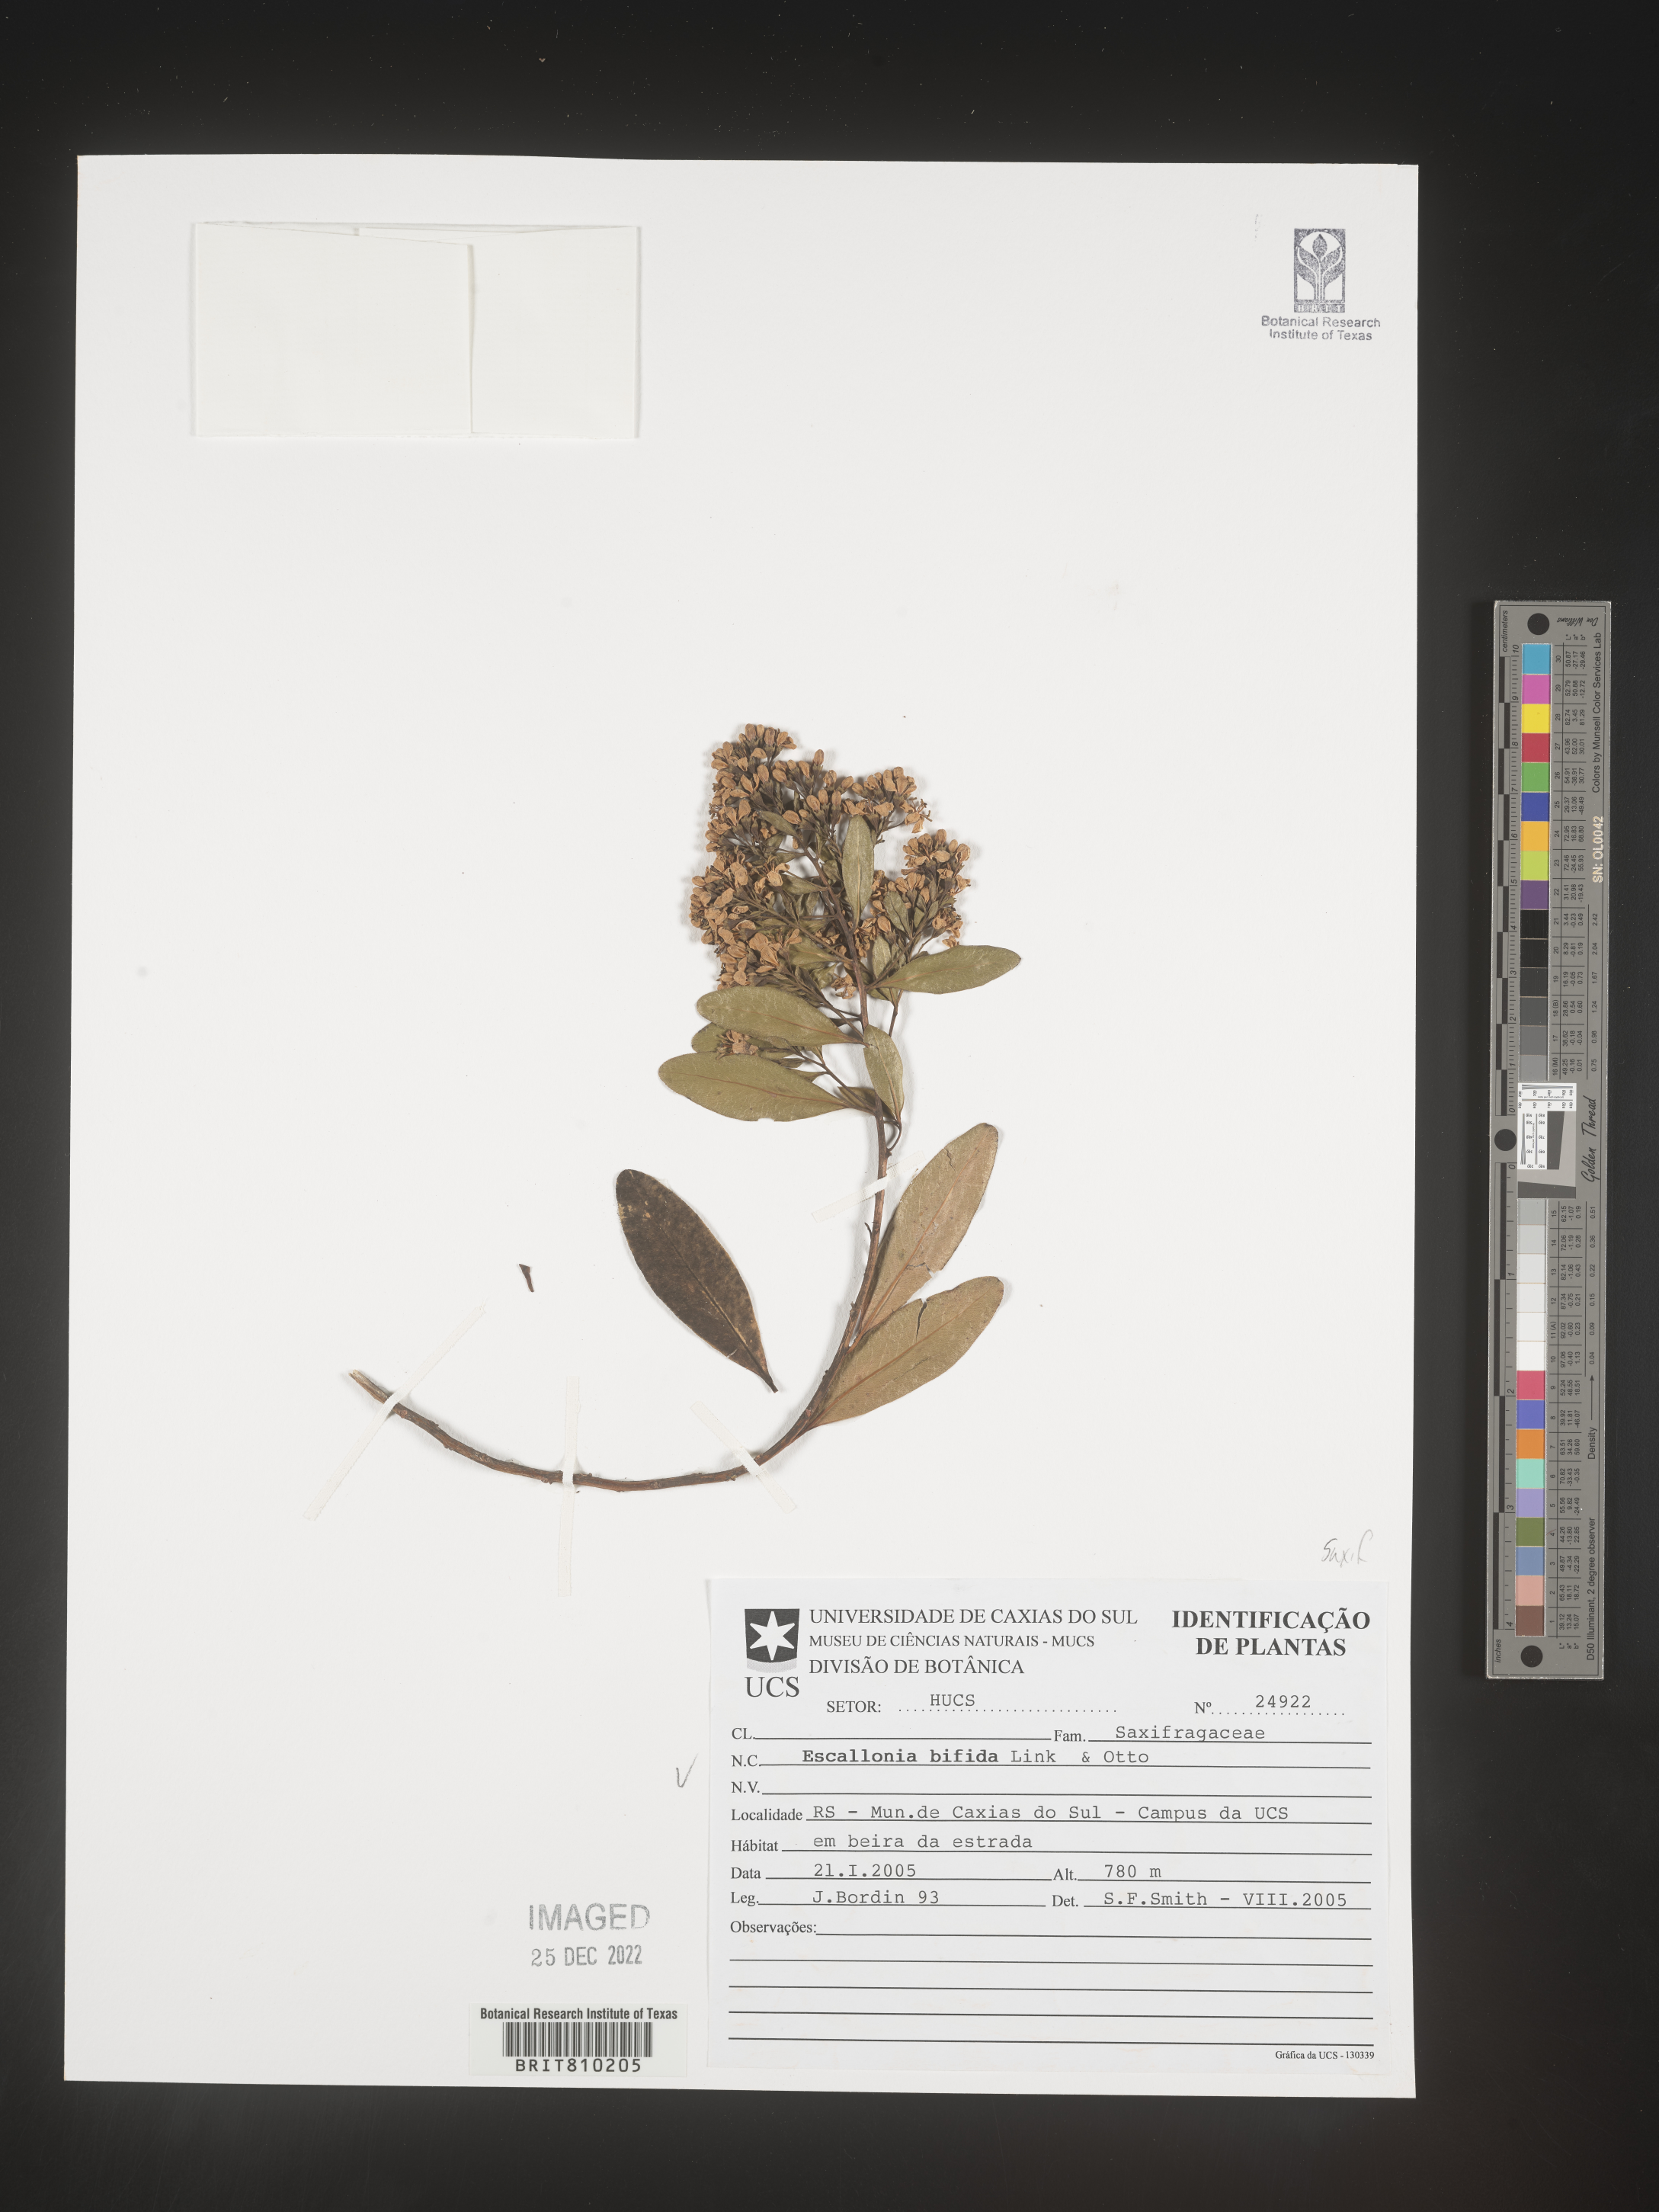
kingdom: Plantae
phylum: Tracheophyta
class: Magnoliopsida
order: Escalloniales
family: Escalloniaceae
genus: Escallonia
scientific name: Escallonia
